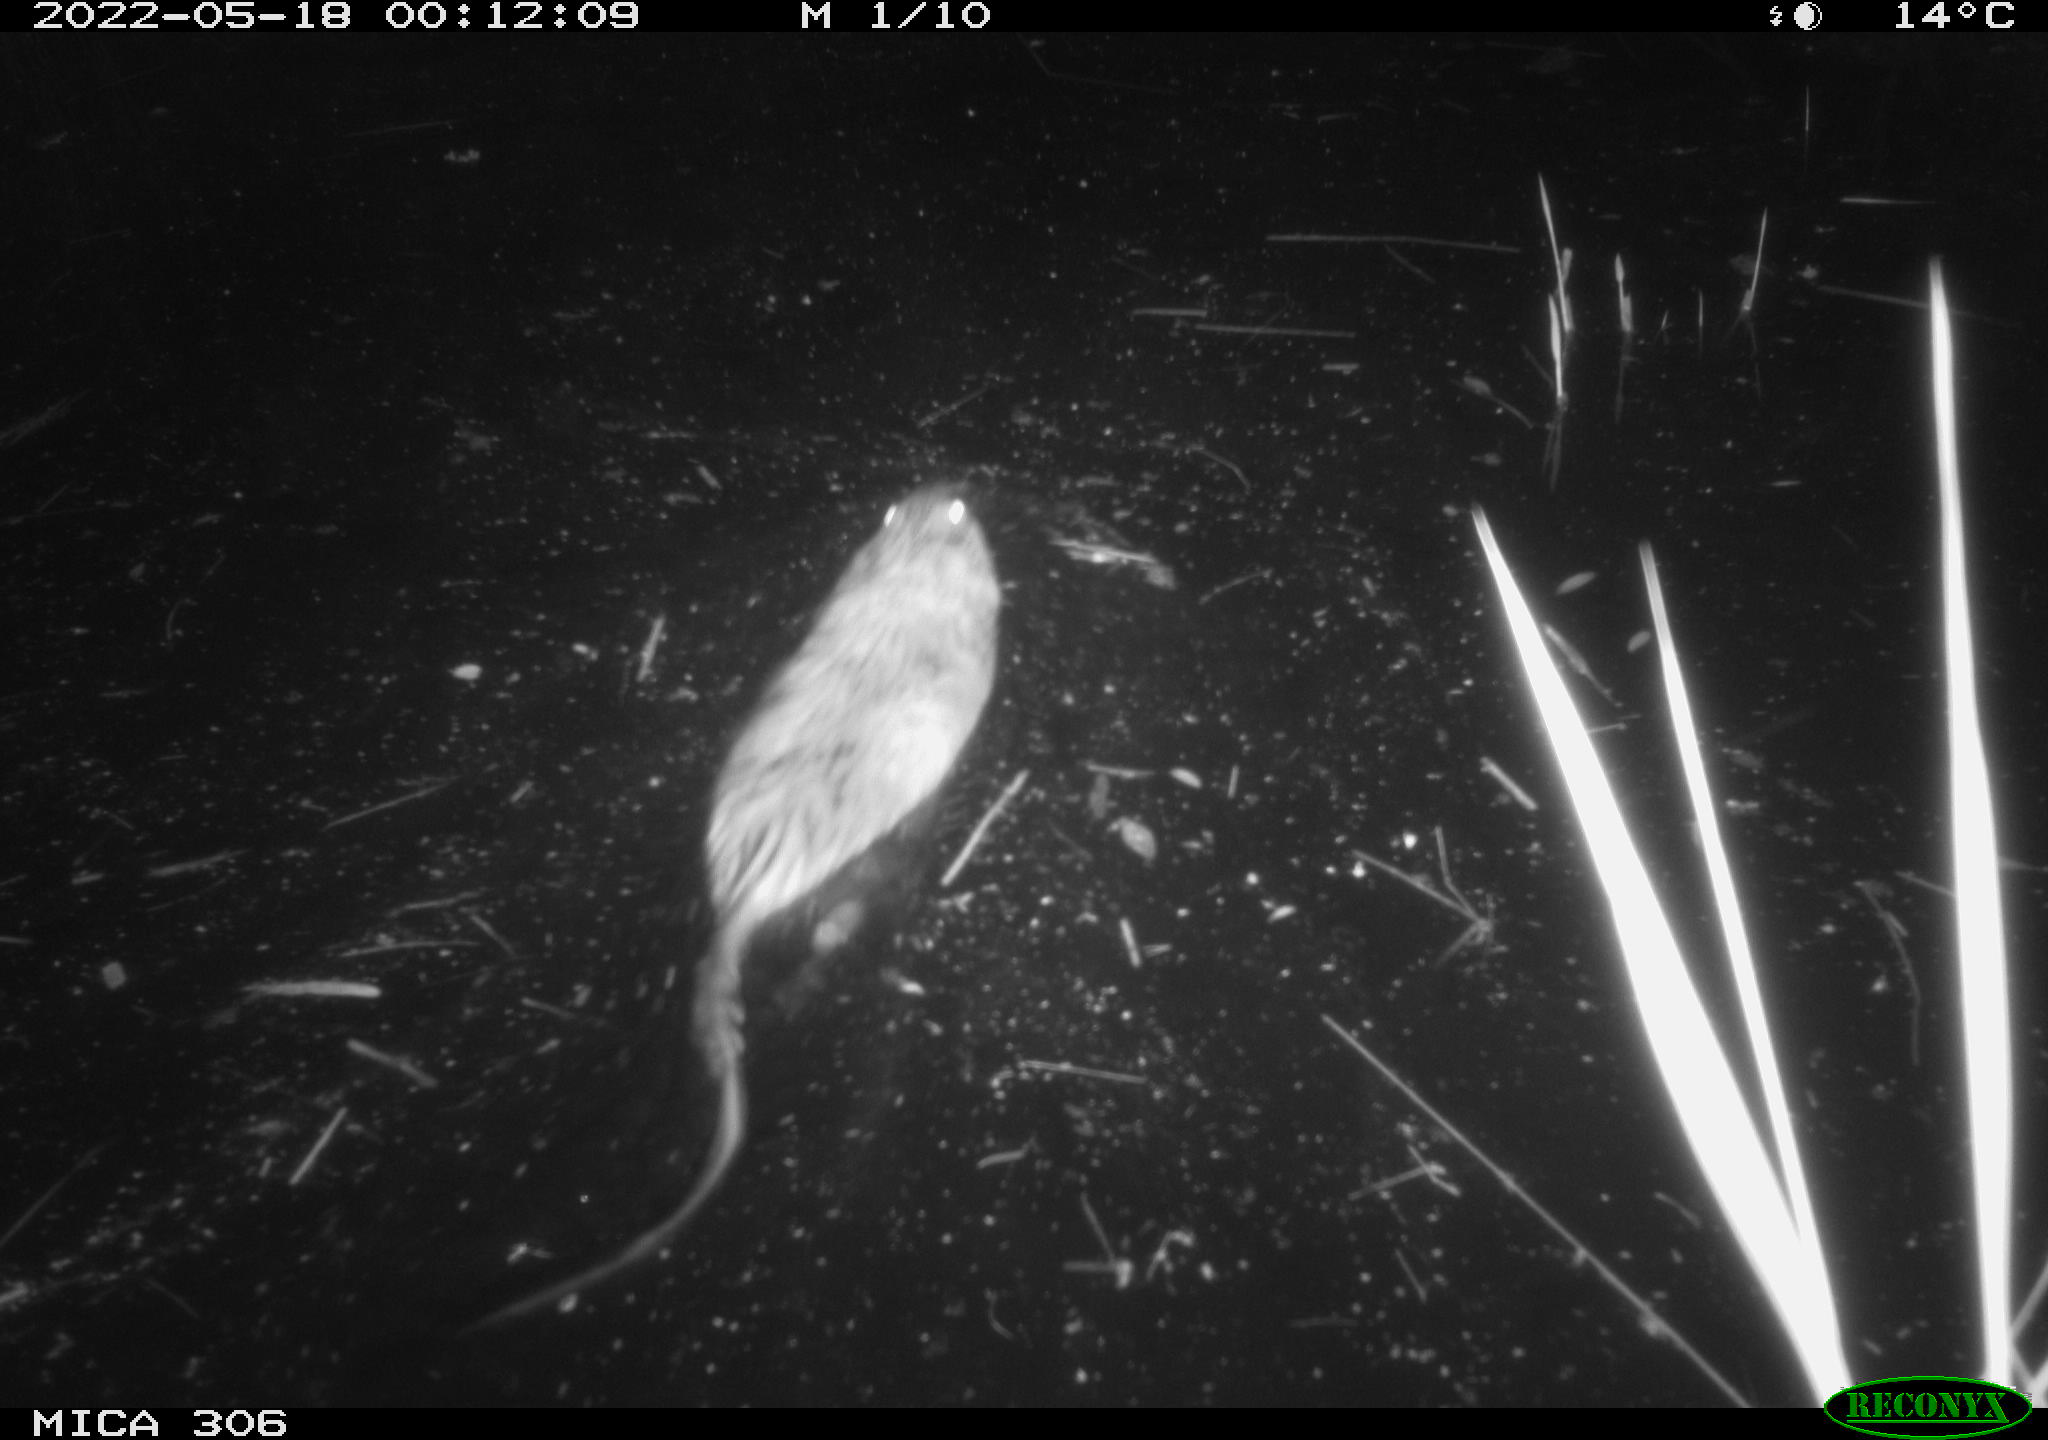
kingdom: Animalia
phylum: Chordata
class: Mammalia
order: Rodentia
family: Cricetidae
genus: Ondatra
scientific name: Ondatra zibethicus
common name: Muskrat
